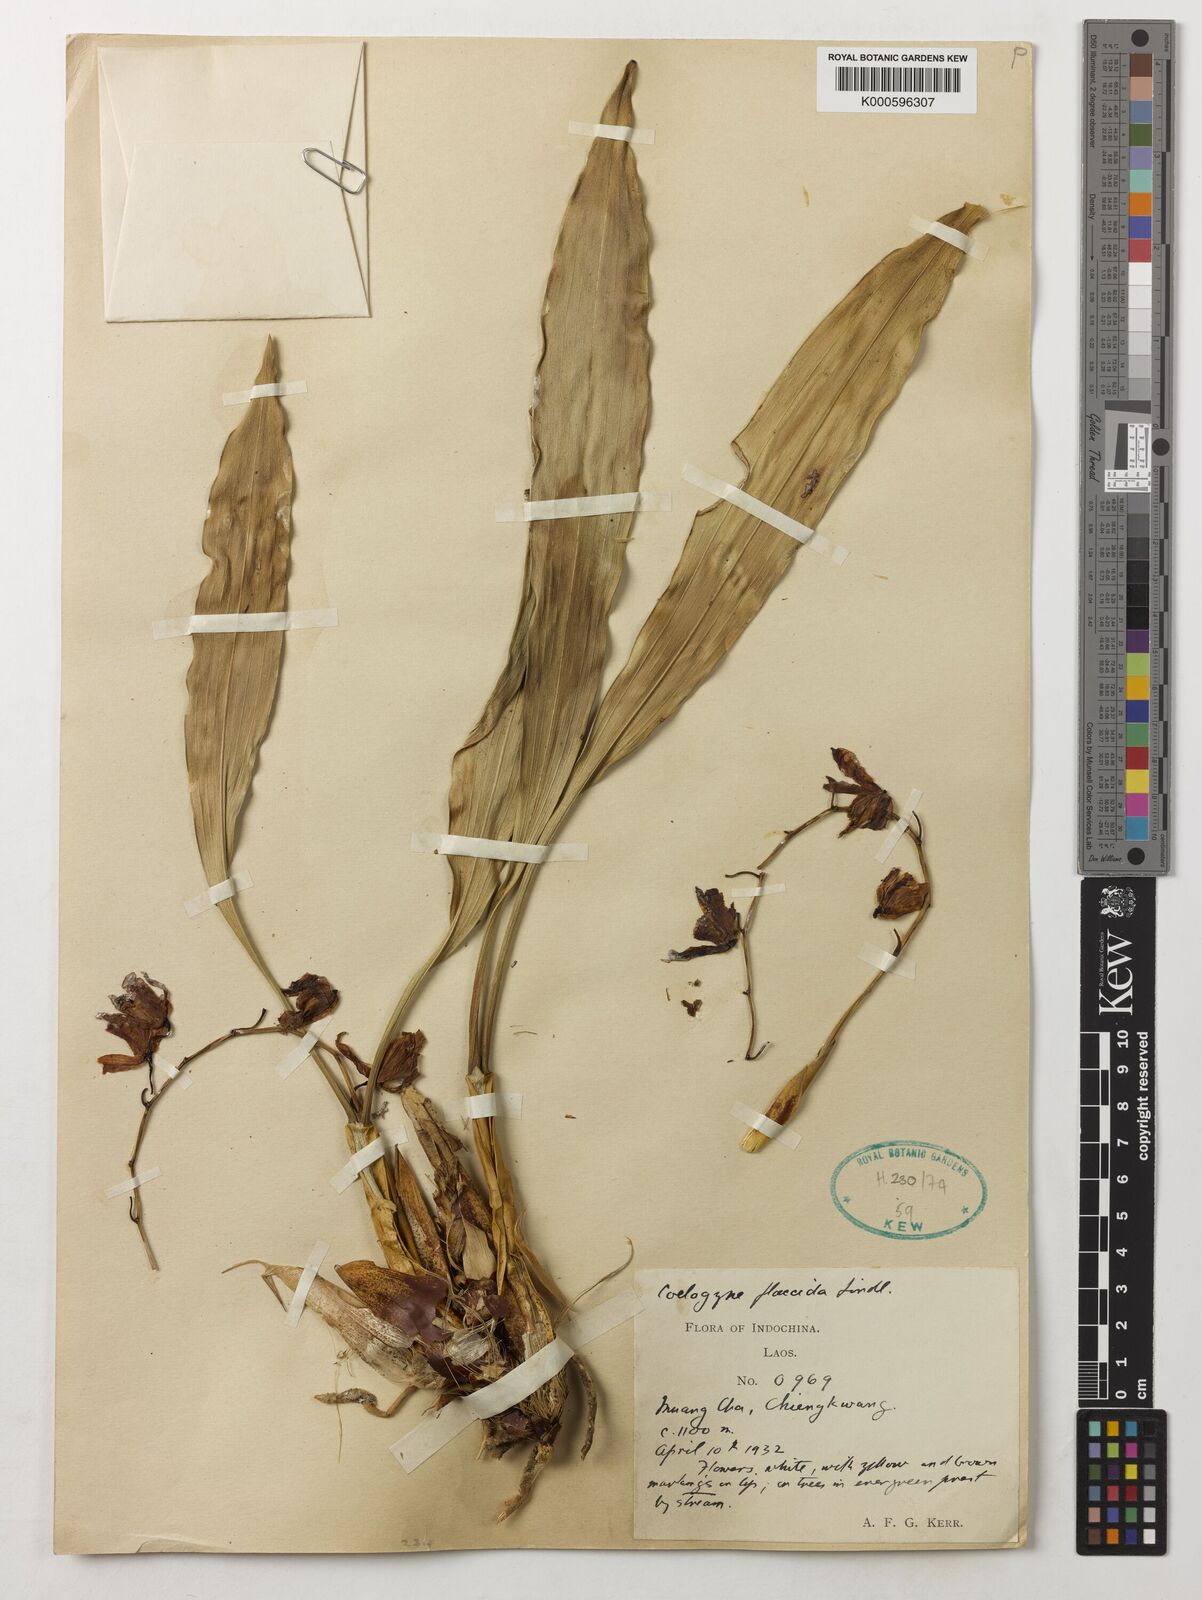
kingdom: Plantae
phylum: Tracheophyta
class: Liliopsida
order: Asparagales
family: Orchidaceae
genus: Coelogyne
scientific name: Coelogyne flaccida
